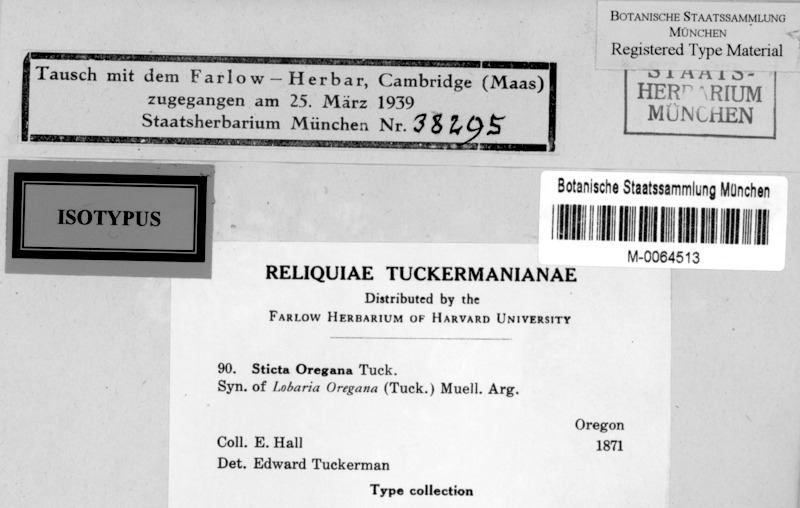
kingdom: Fungi
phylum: Ascomycota
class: Lecanoromycetes
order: Peltigerales
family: Lobariaceae
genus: Lobaria
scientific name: Lobaria oregana
